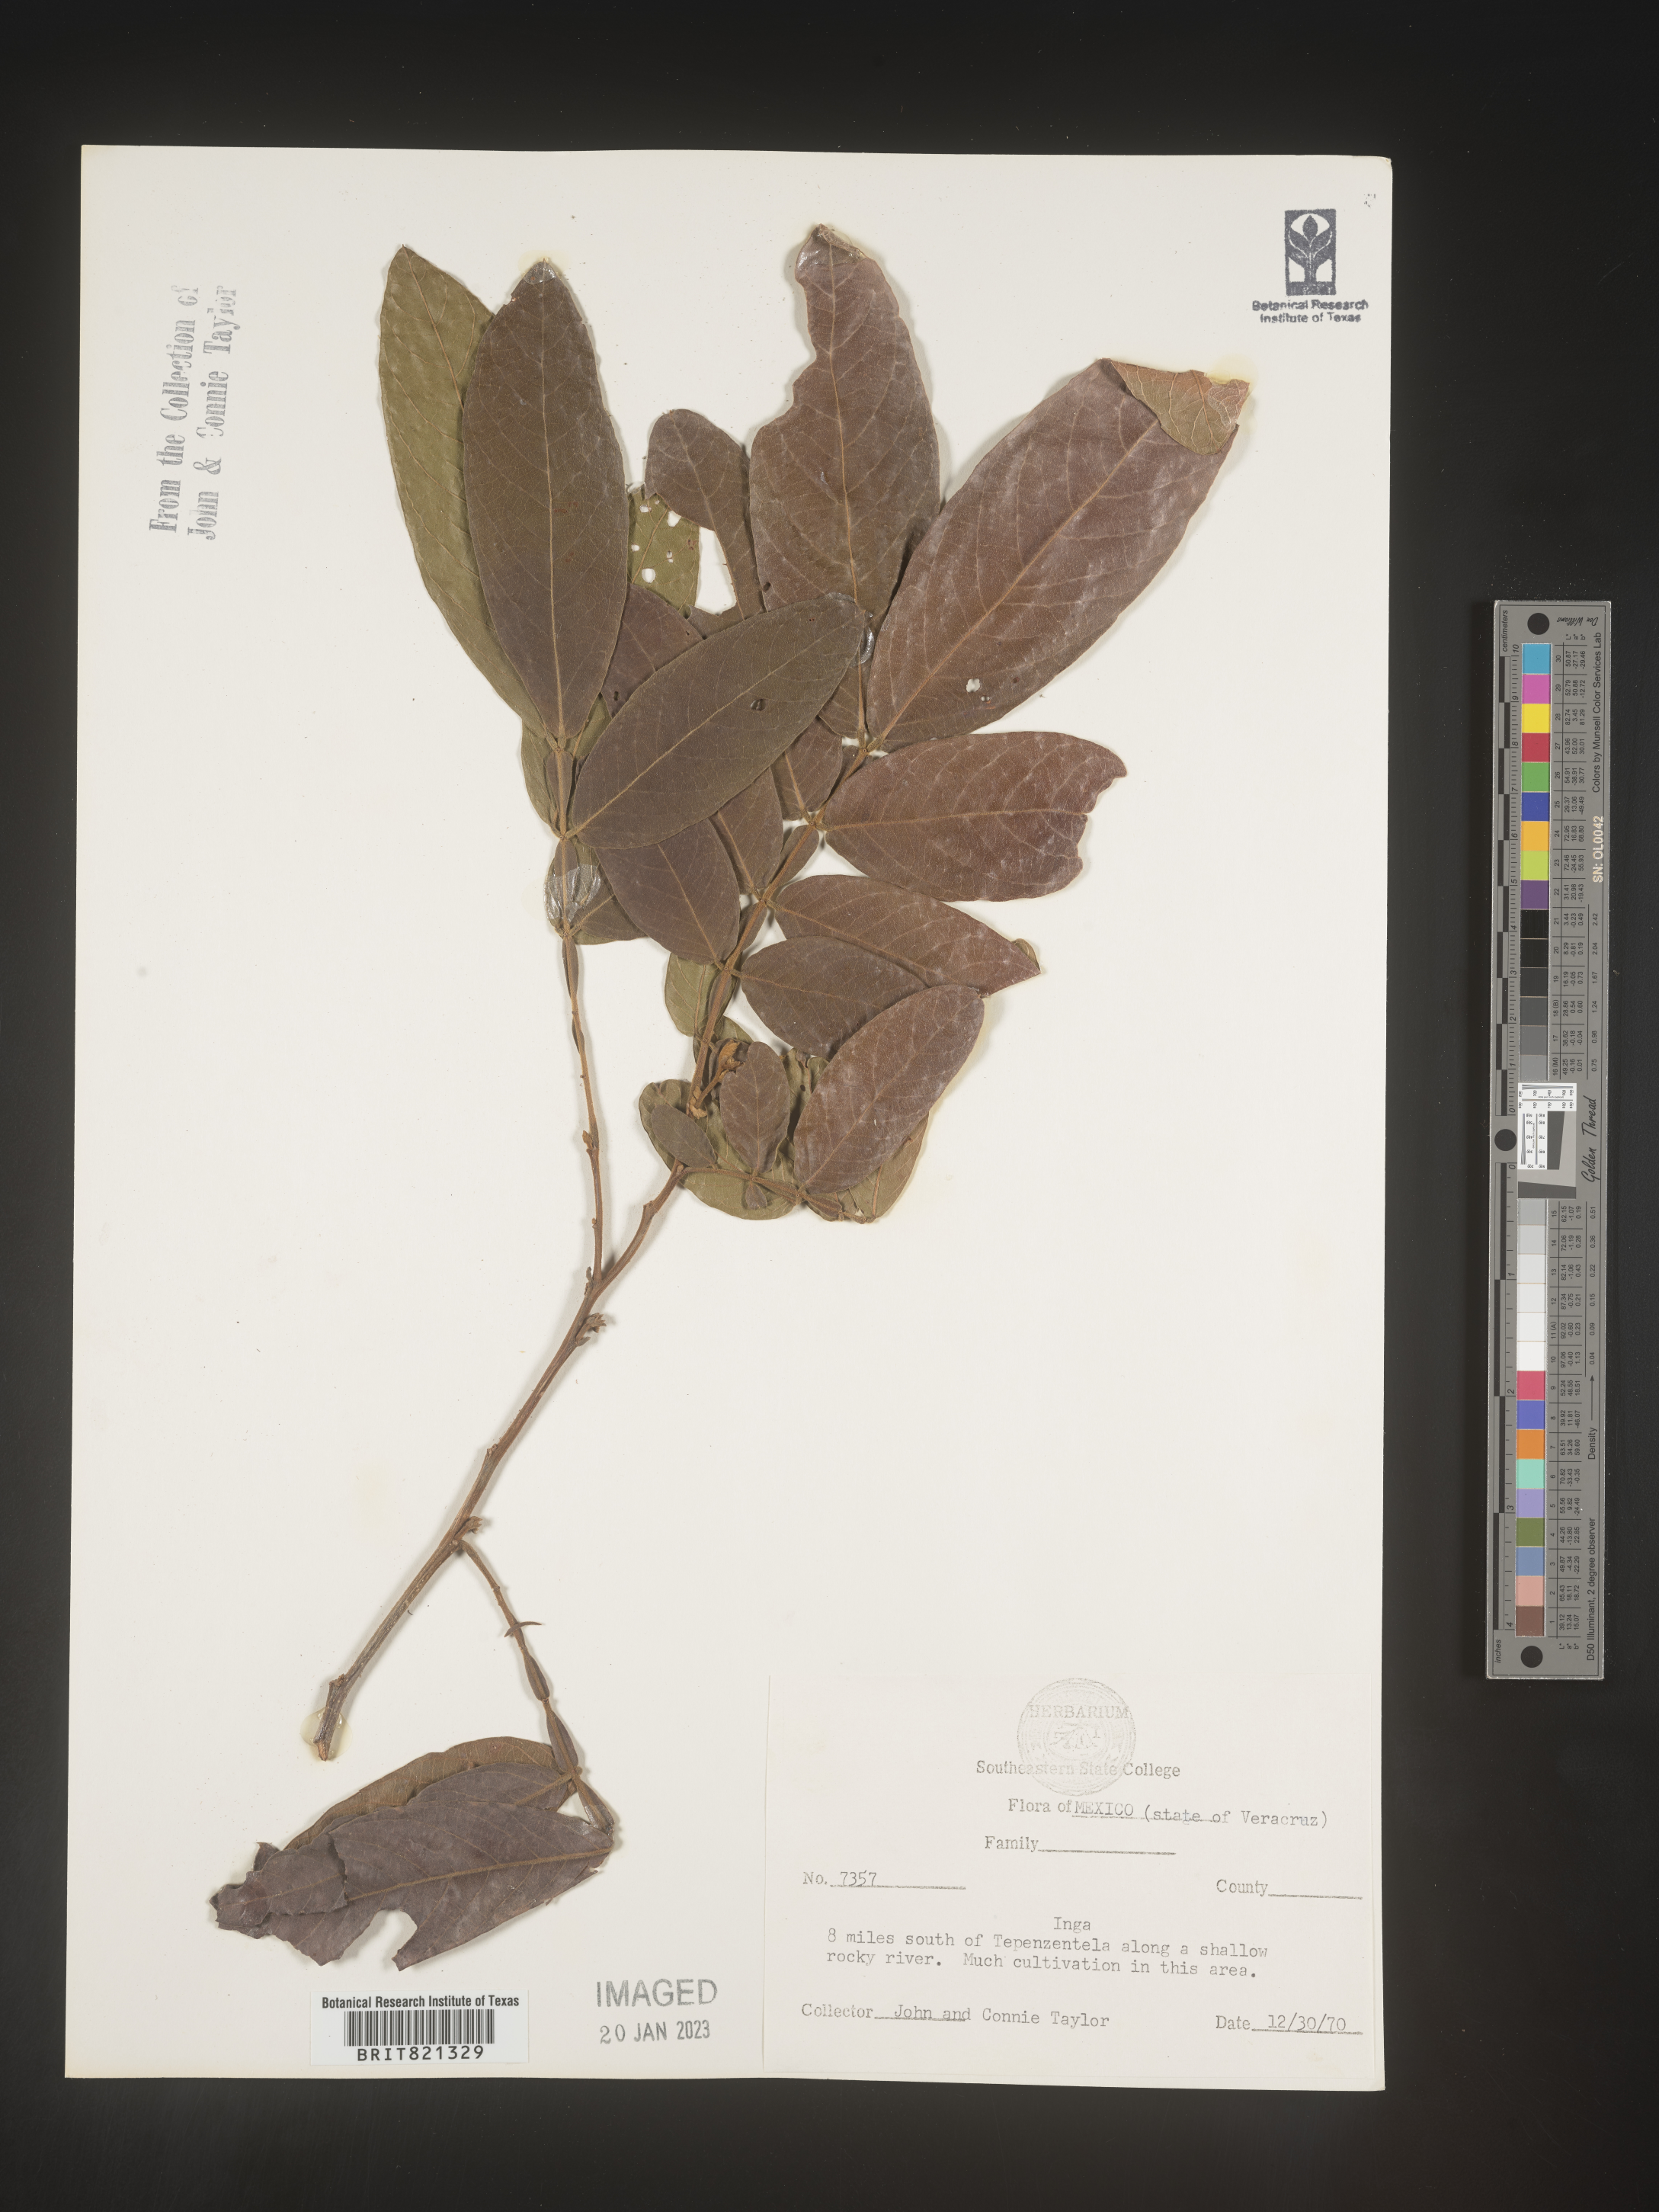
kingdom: Plantae
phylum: Tracheophyta
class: Magnoliopsida
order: Fabales
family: Fabaceae
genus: Inga
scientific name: Inga
